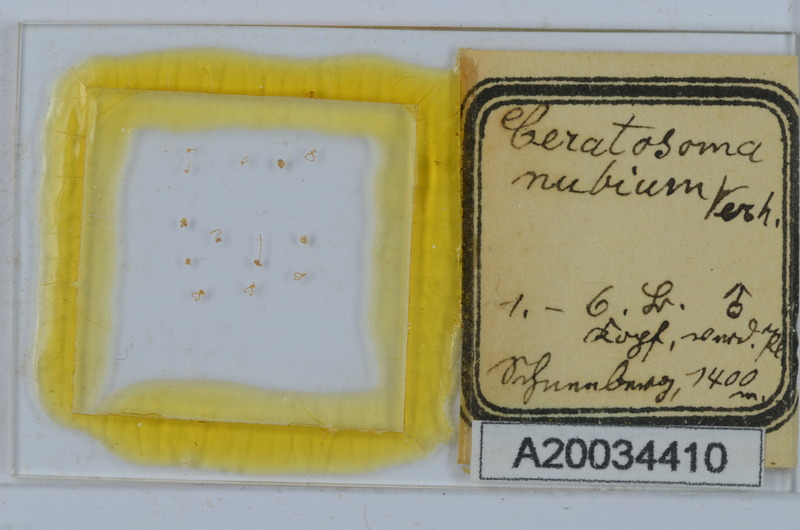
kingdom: Animalia
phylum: Arthropoda
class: Diplopoda
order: Chordeumatida
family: Craspedosomatidae
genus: Ochogona
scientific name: Ochogona elaphron
